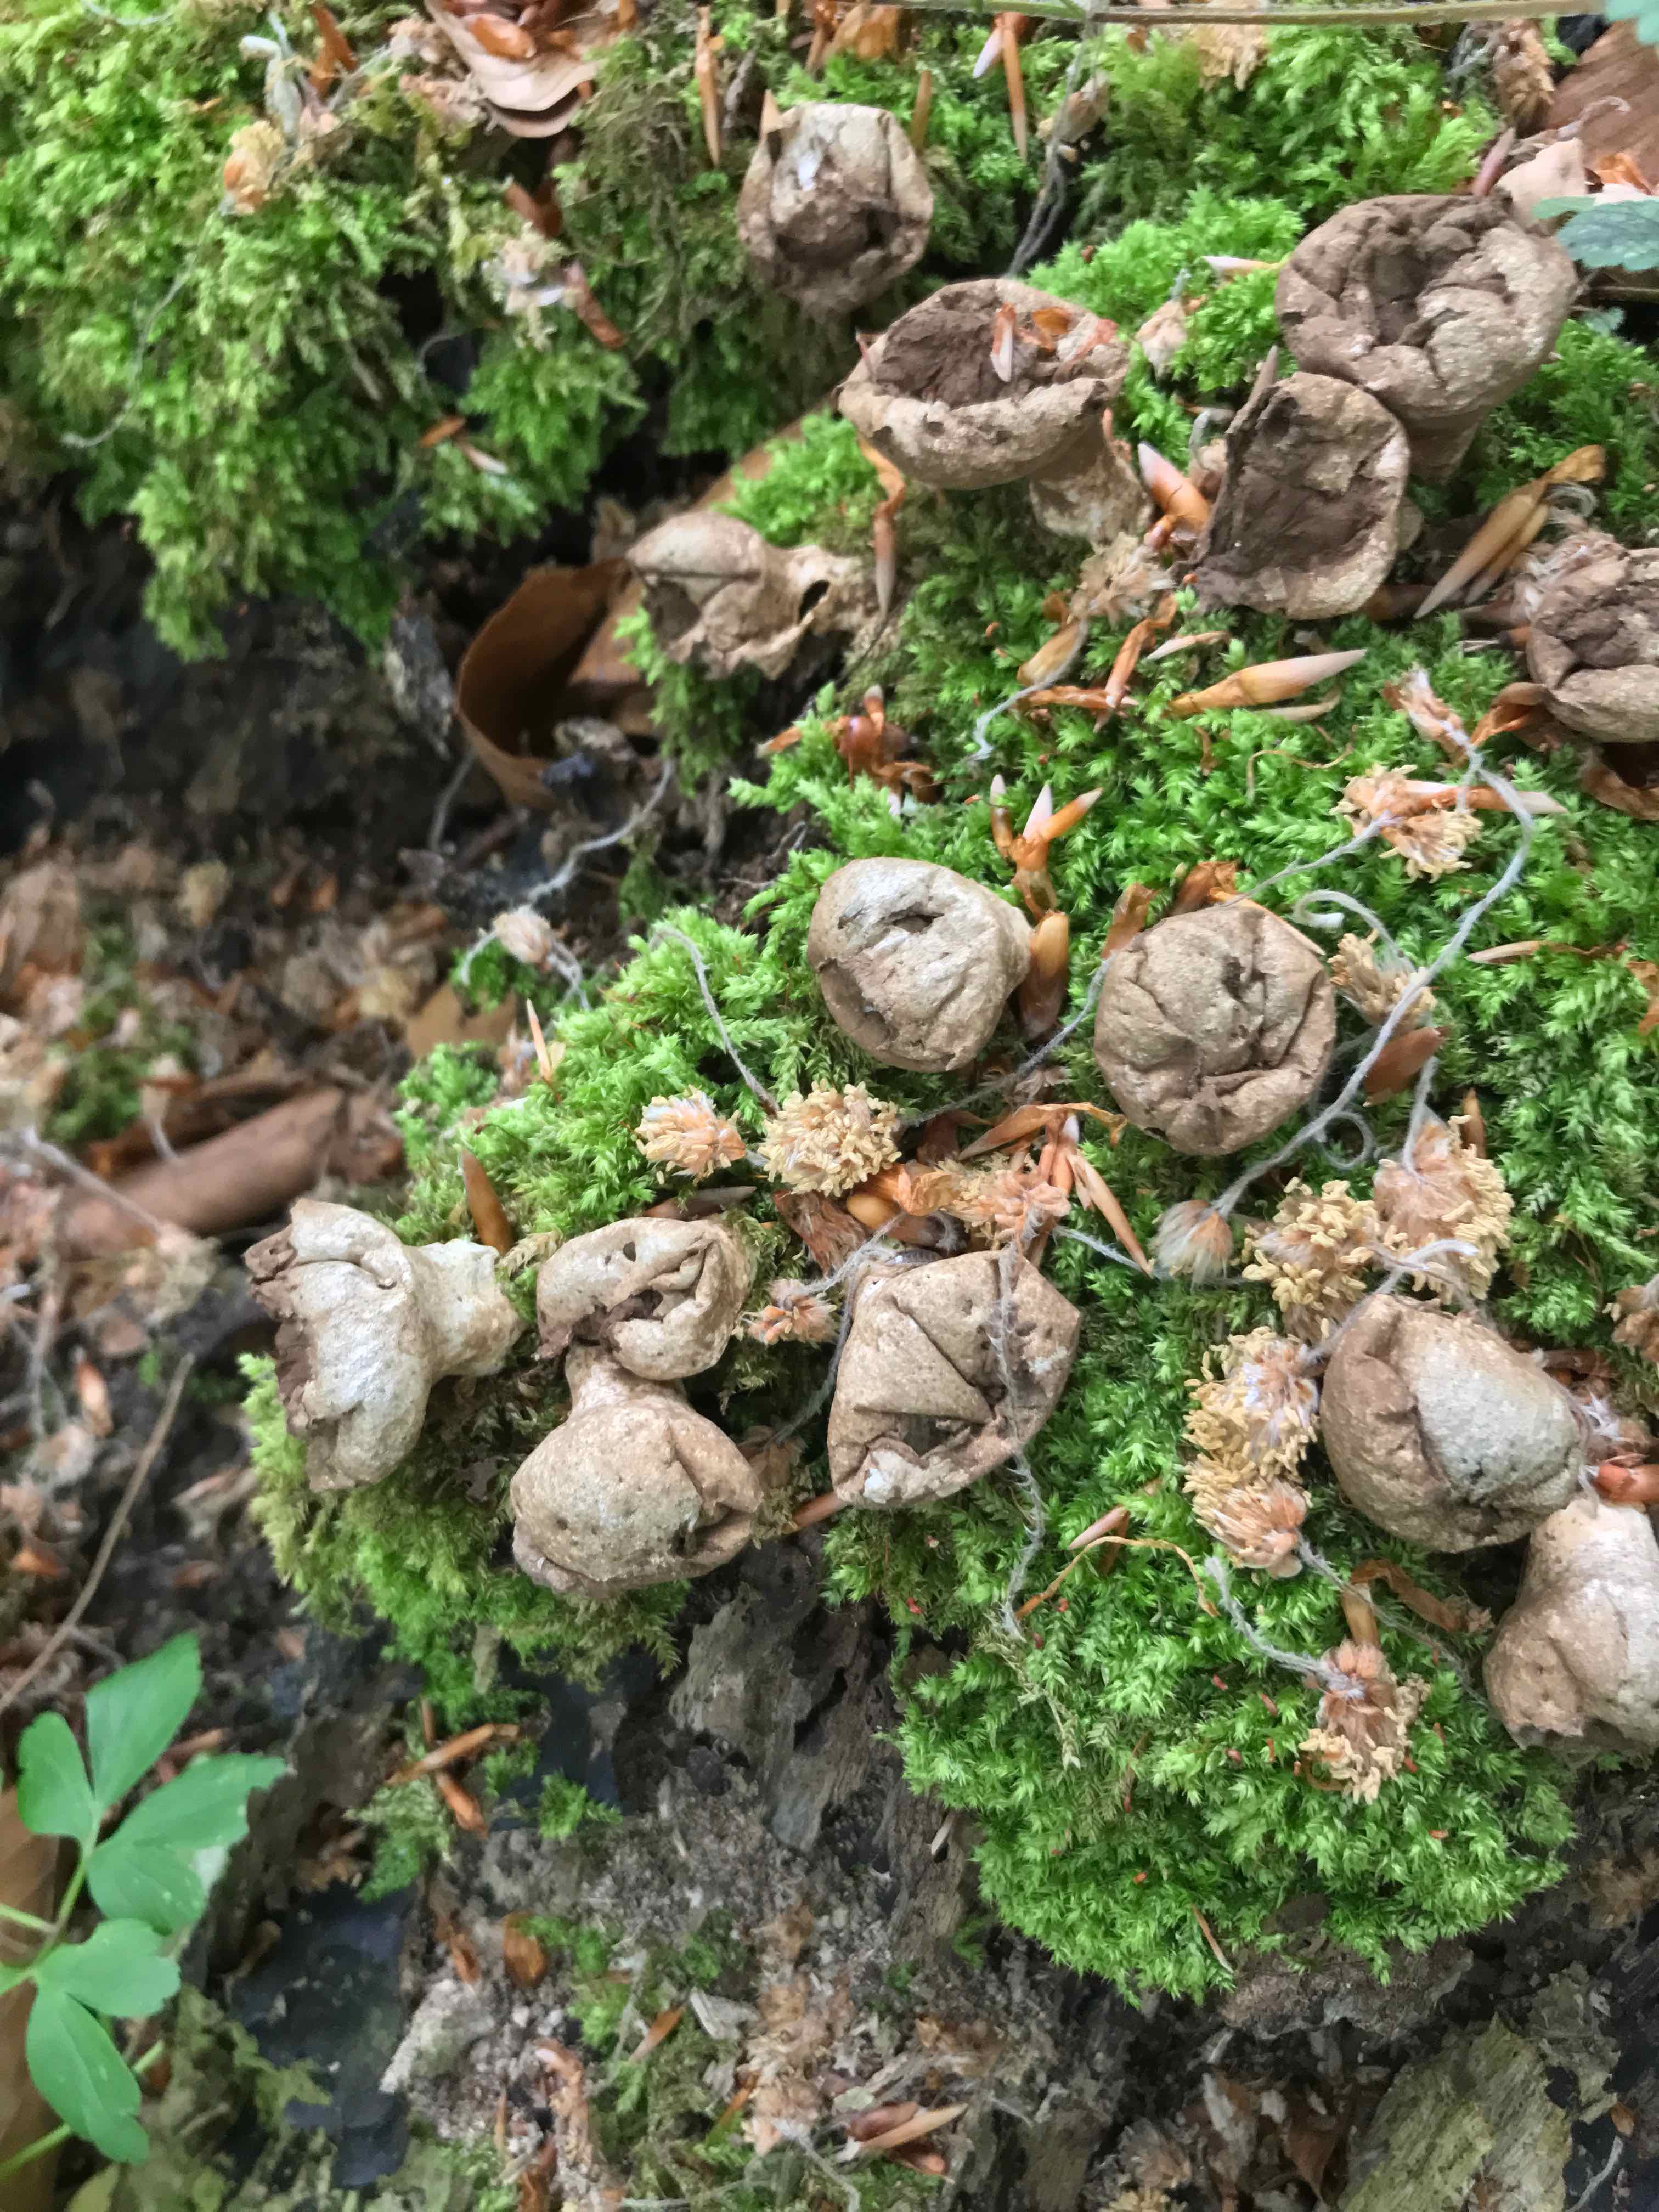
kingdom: Fungi
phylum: Basidiomycota
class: Agaricomycetes
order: Agaricales
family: Lycoperdaceae
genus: Apioperdon
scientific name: Apioperdon pyriforme
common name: pære-støvbold
